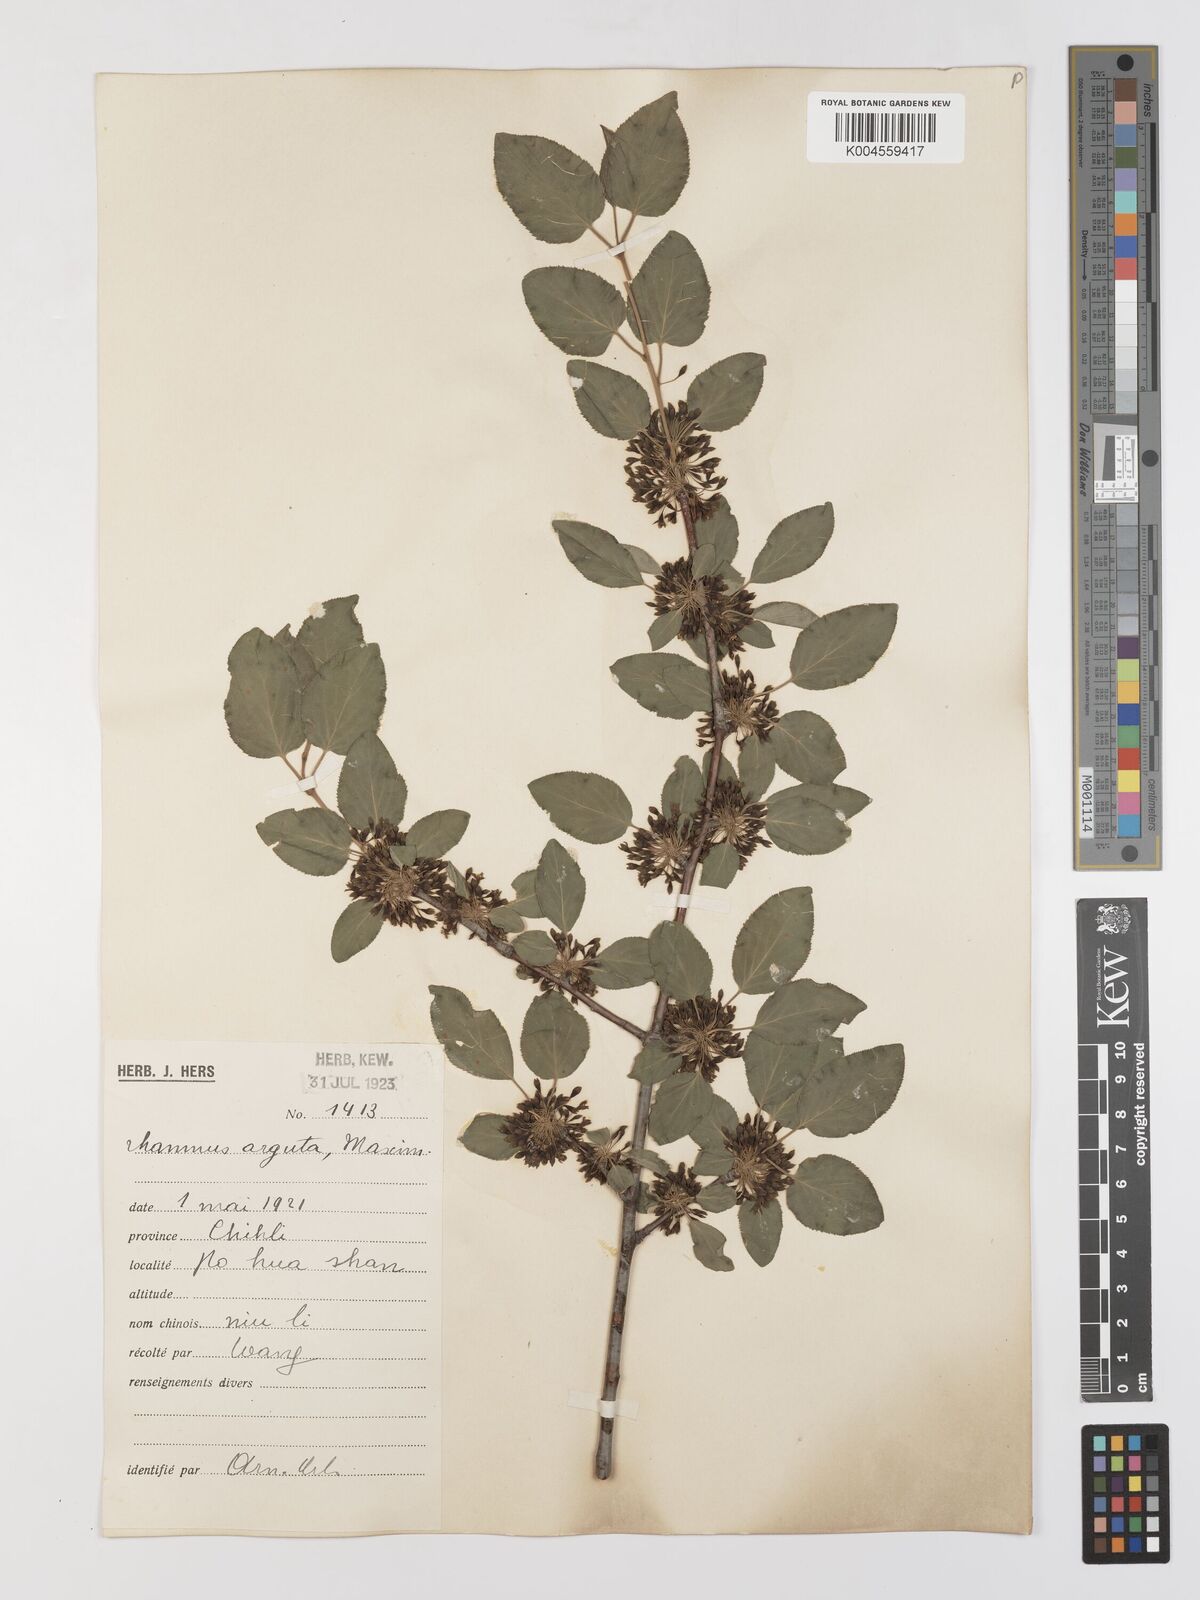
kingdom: Plantae
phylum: Tracheophyta
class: Magnoliopsida
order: Rosales
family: Rhamnaceae
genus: Rhamnus
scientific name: Rhamnus arguta
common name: Sharp-tooth buckthorn
